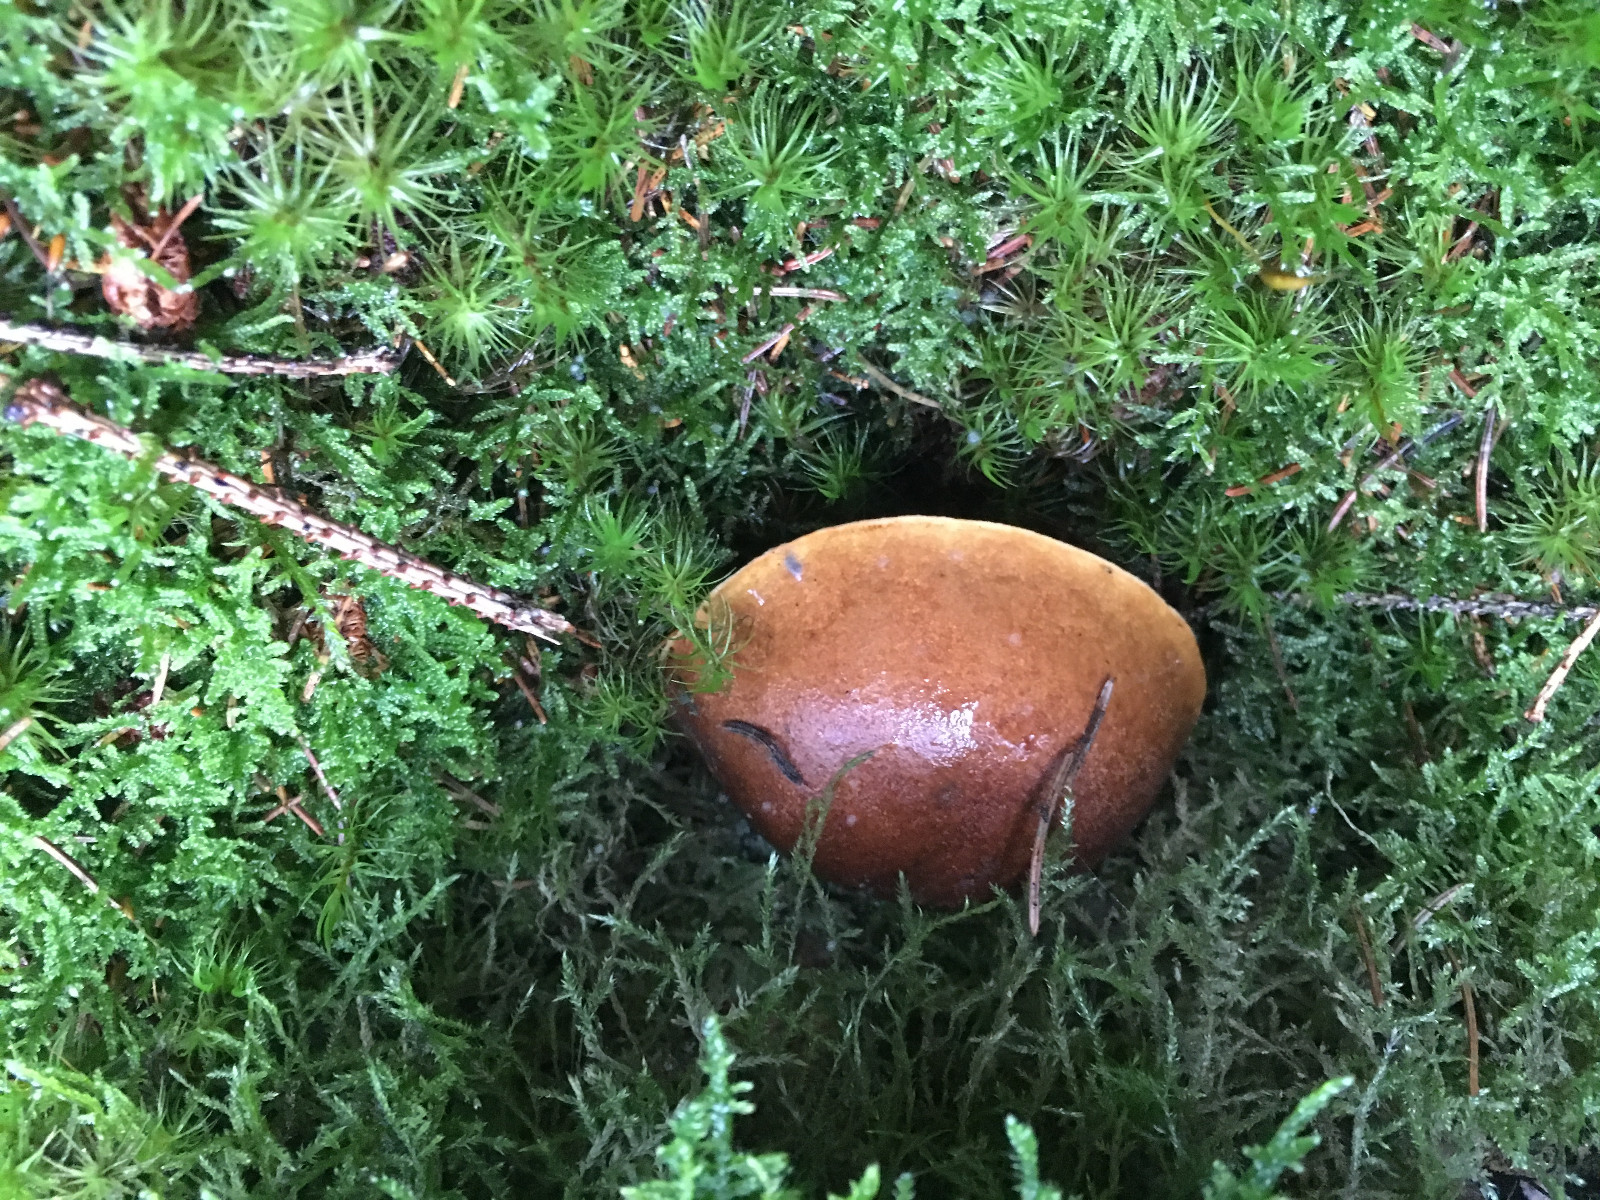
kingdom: Fungi
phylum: Basidiomycota
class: Agaricomycetes
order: Boletales
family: Boletaceae
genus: Imleria
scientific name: Imleria badia
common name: brunstokket rørhat
